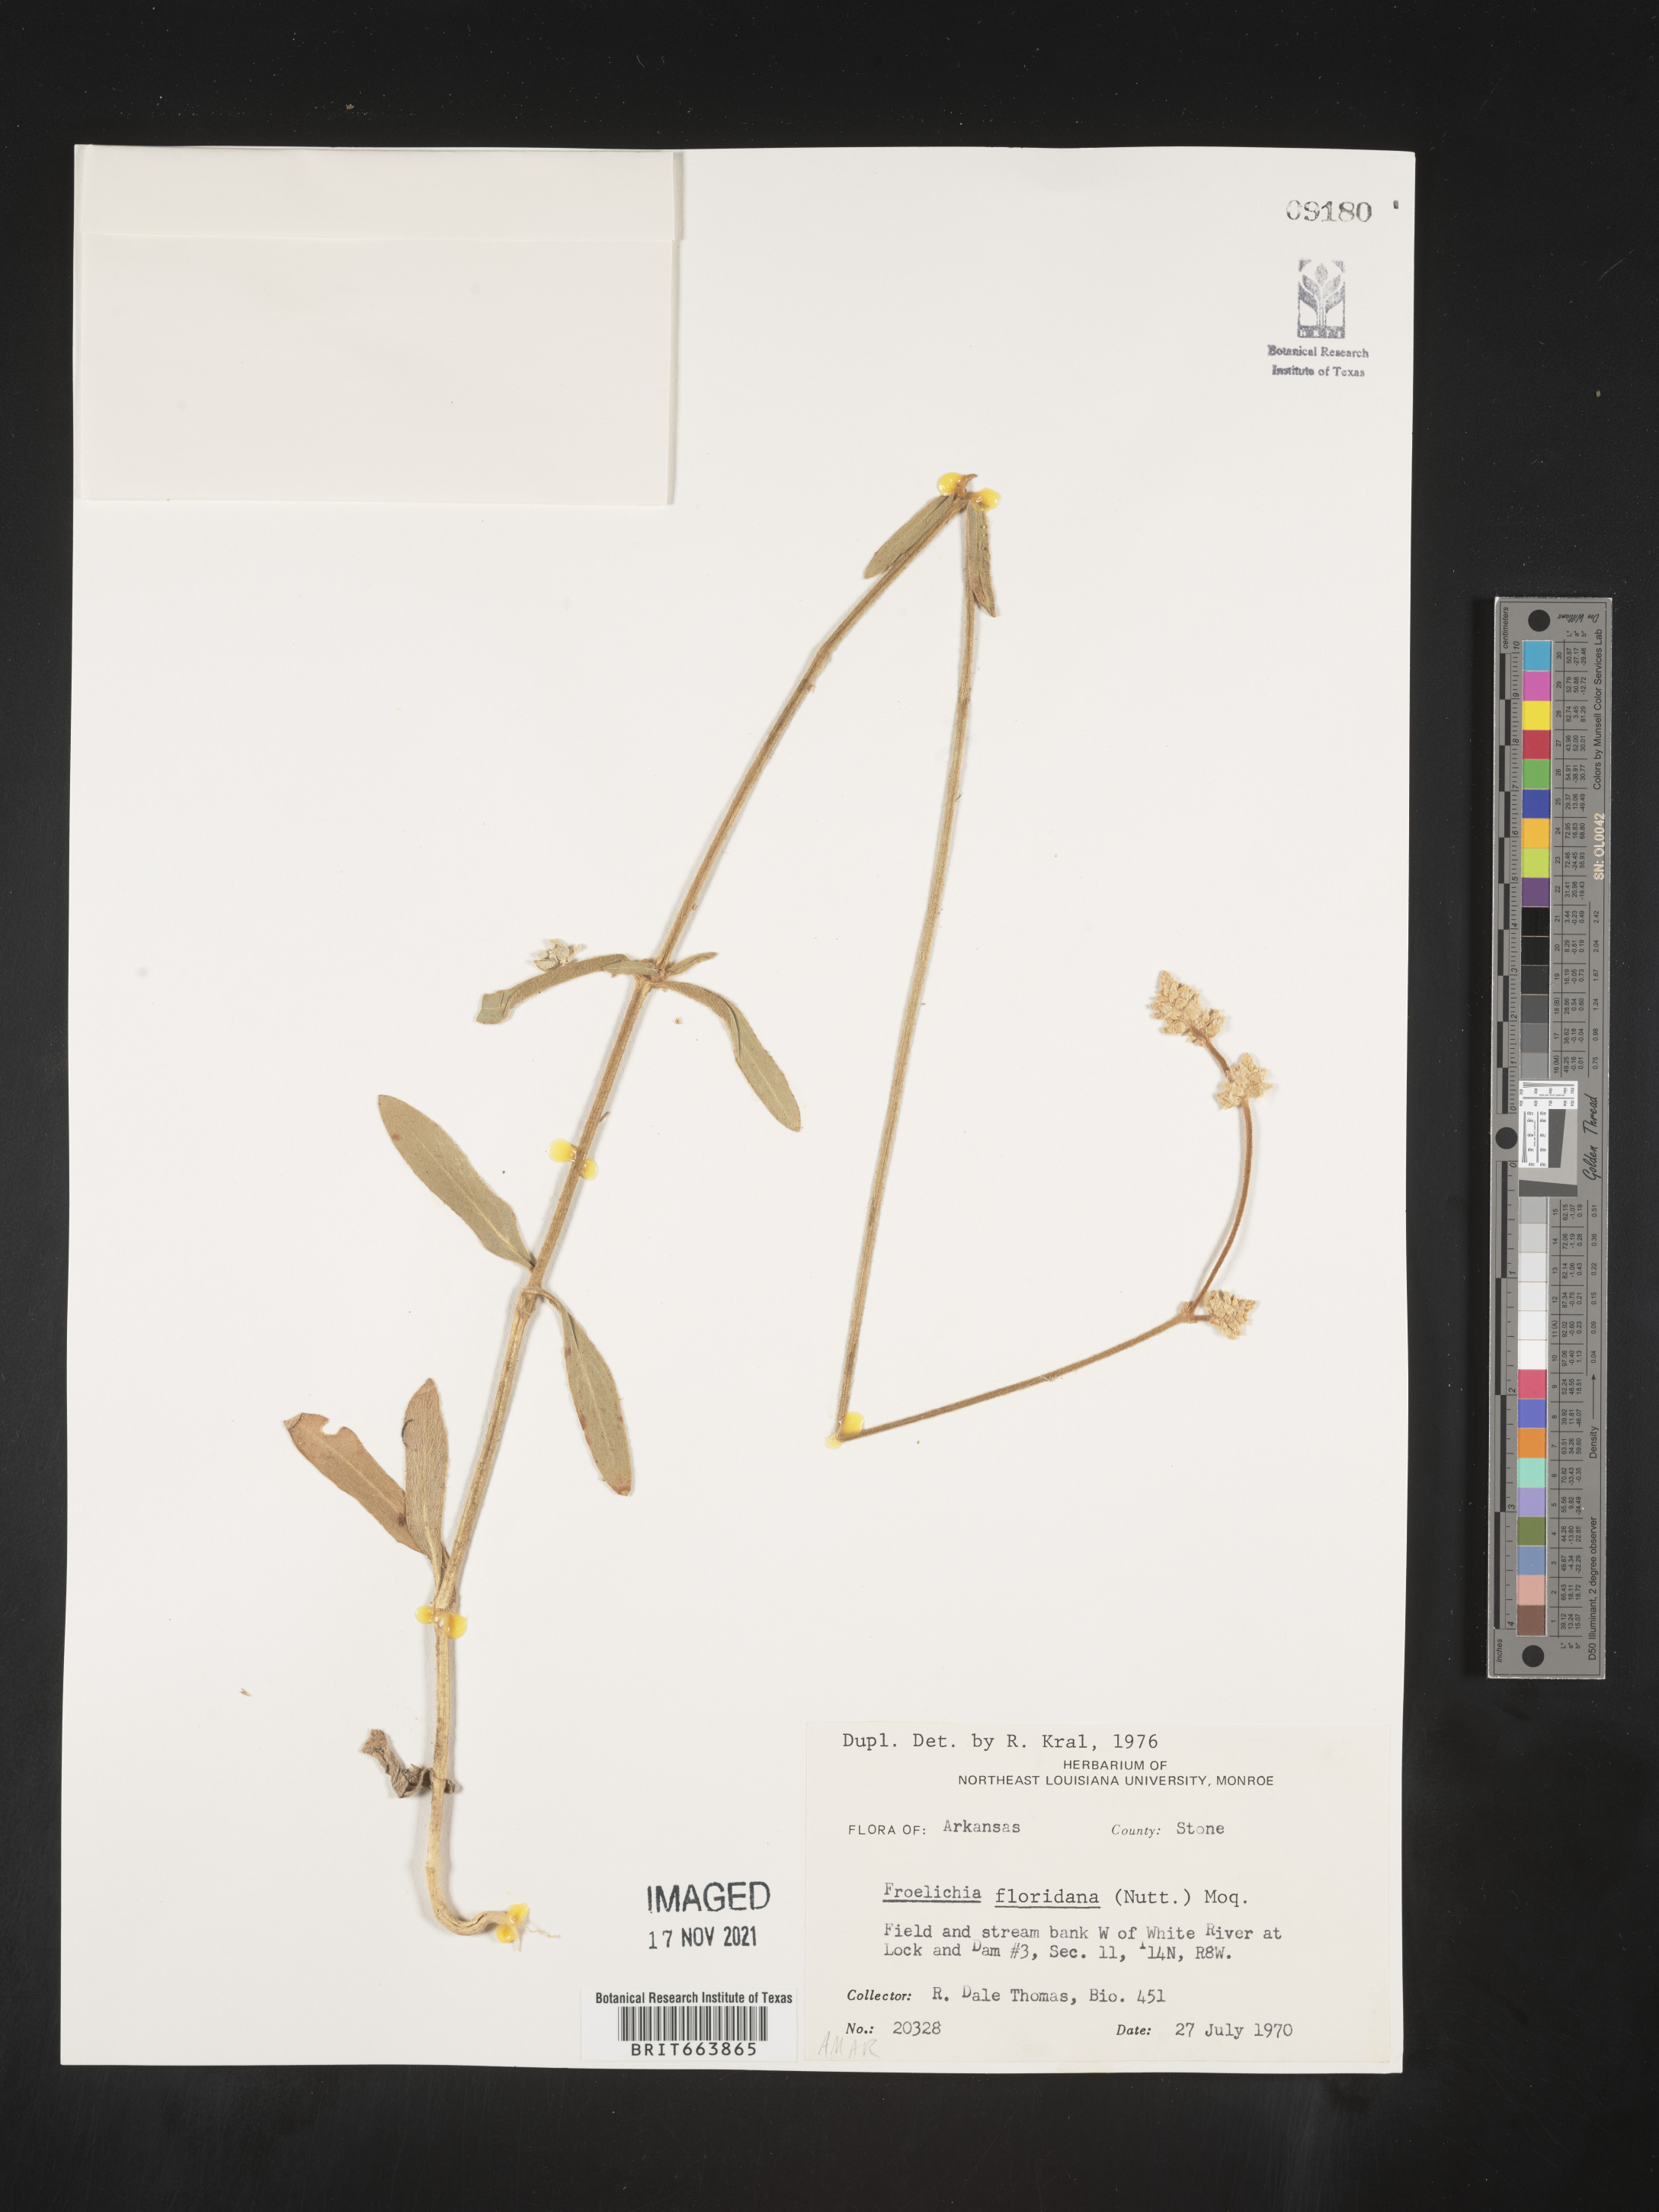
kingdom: Plantae
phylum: Tracheophyta
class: Magnoliopsida
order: Caryophyllales
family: Amaranthaceae
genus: Froelichia
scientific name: Froelichia floridana
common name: Florida snake-cotton
